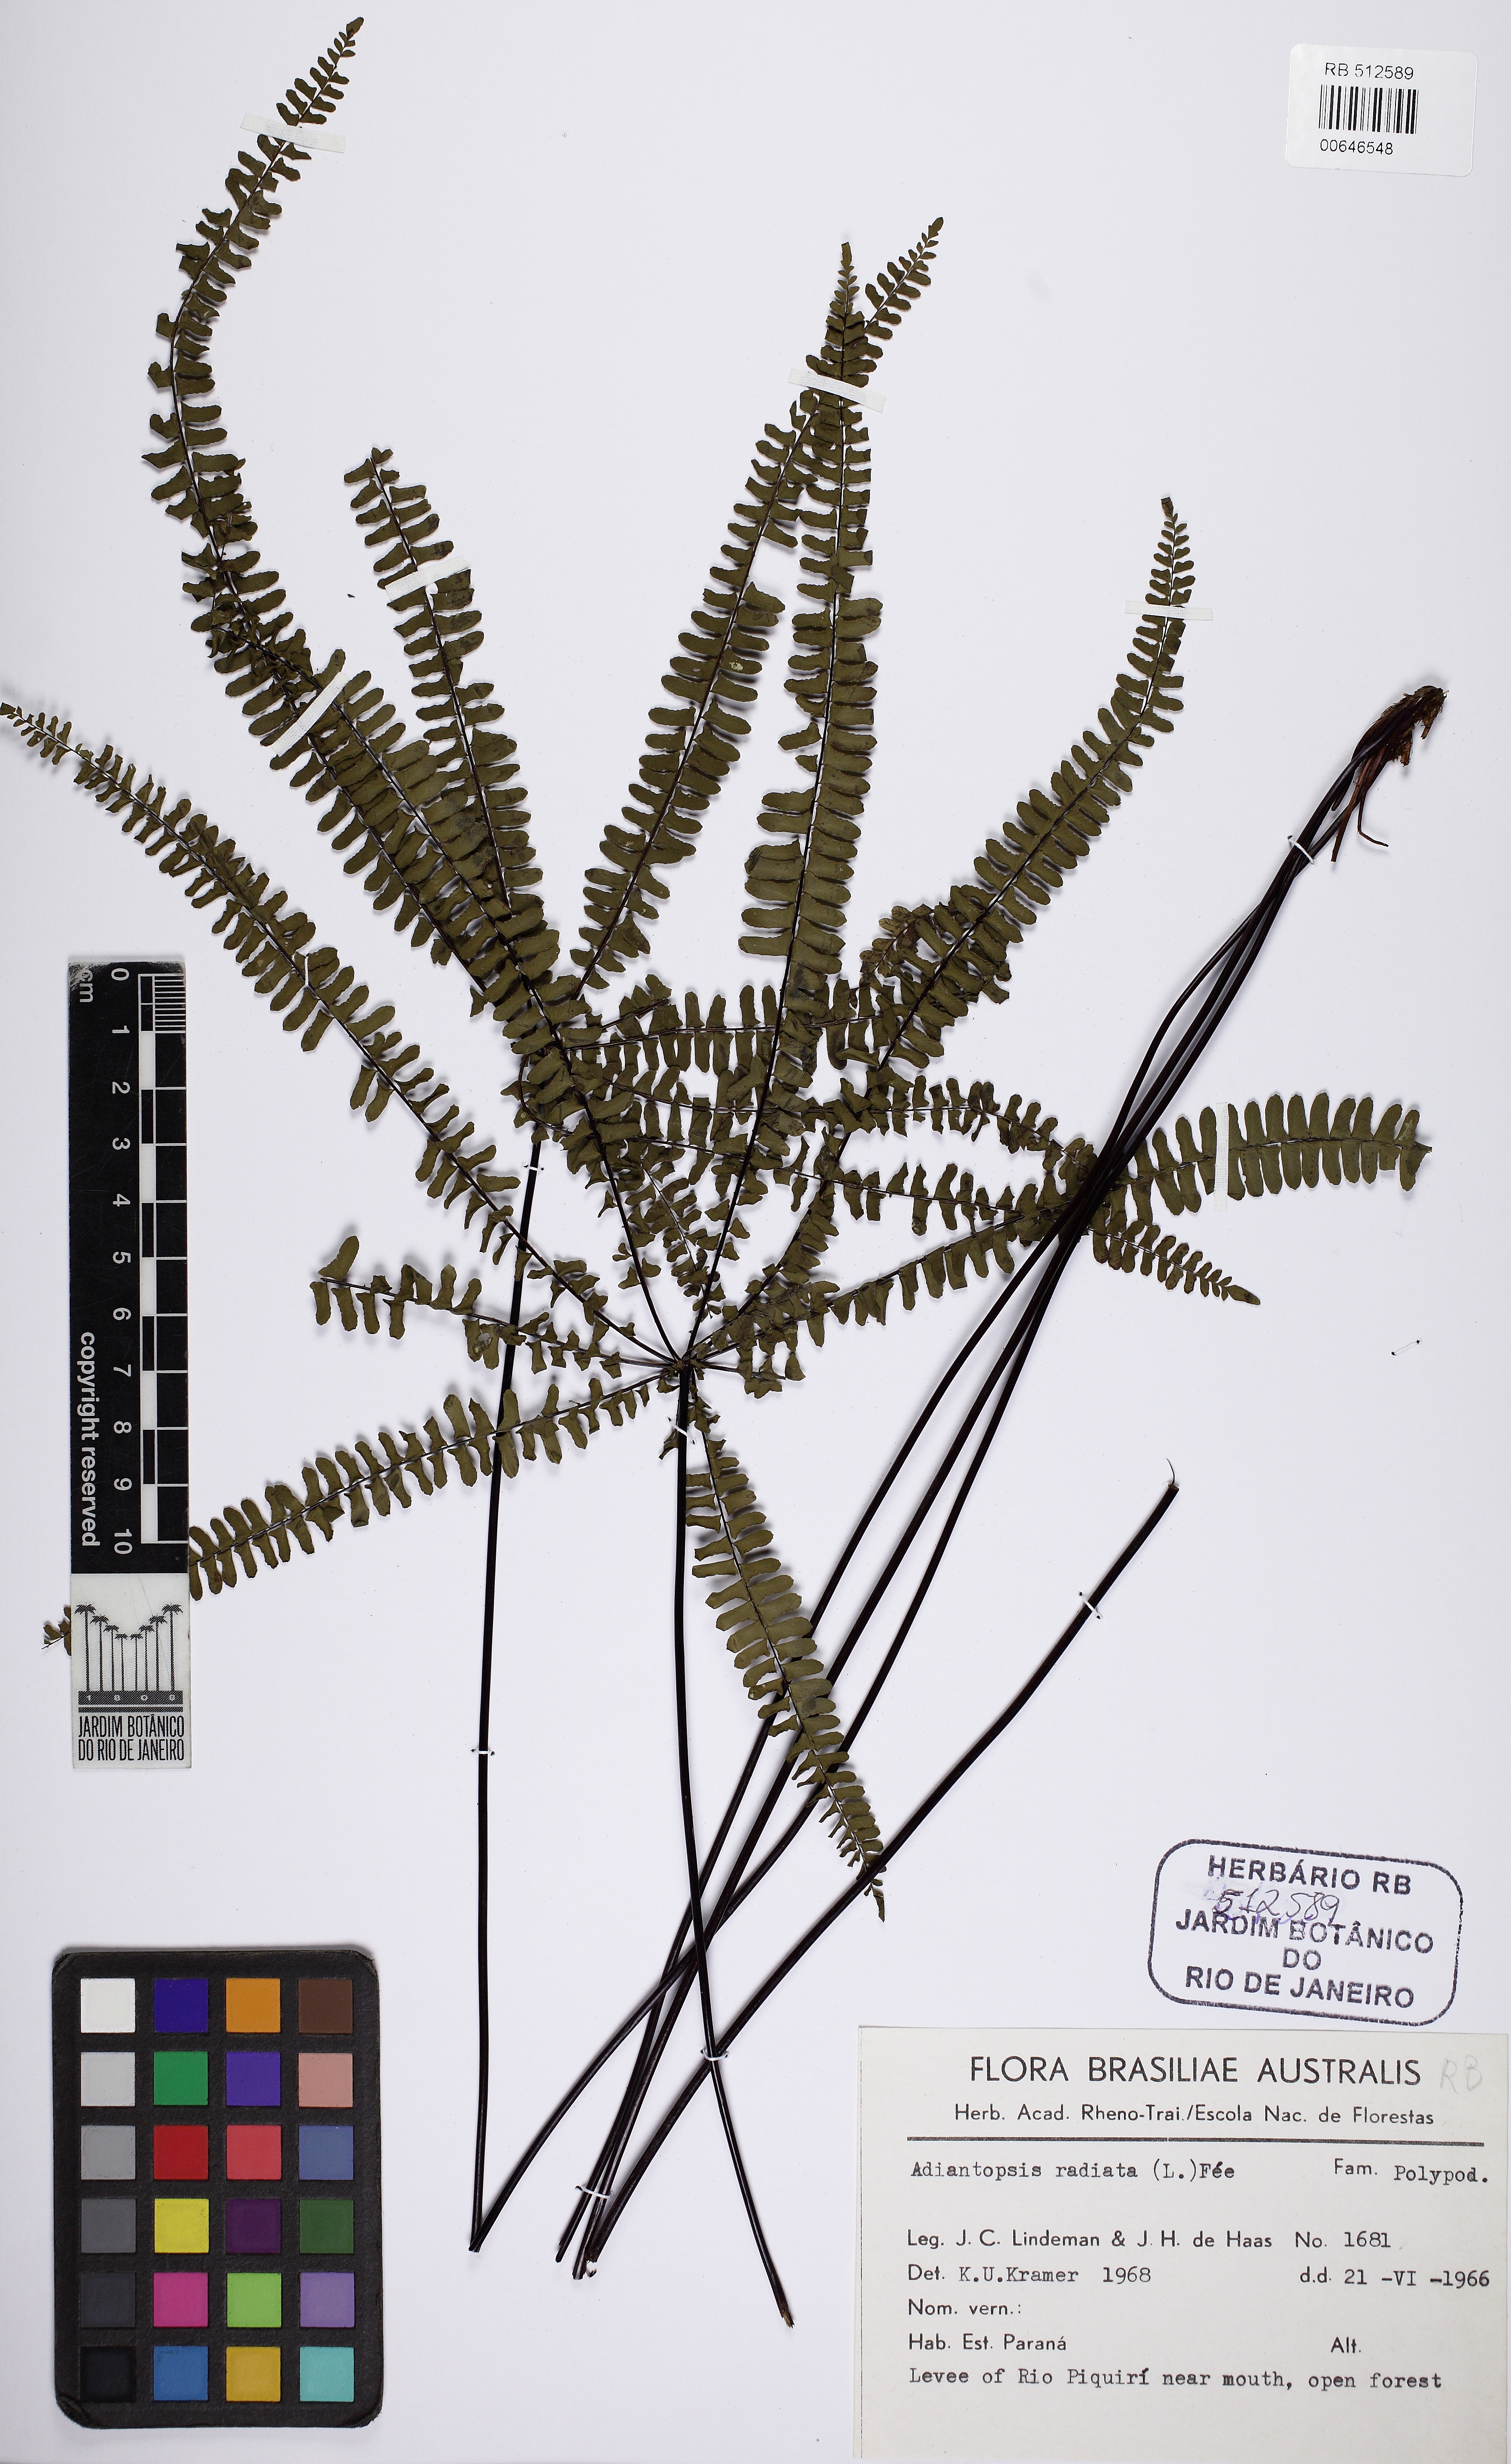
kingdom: Plantae
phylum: Tracheophyta
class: Polypodiopsida
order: Polypodiales
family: Pteridaceae
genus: Adiantopsis
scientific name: Adiantopsis radiata
